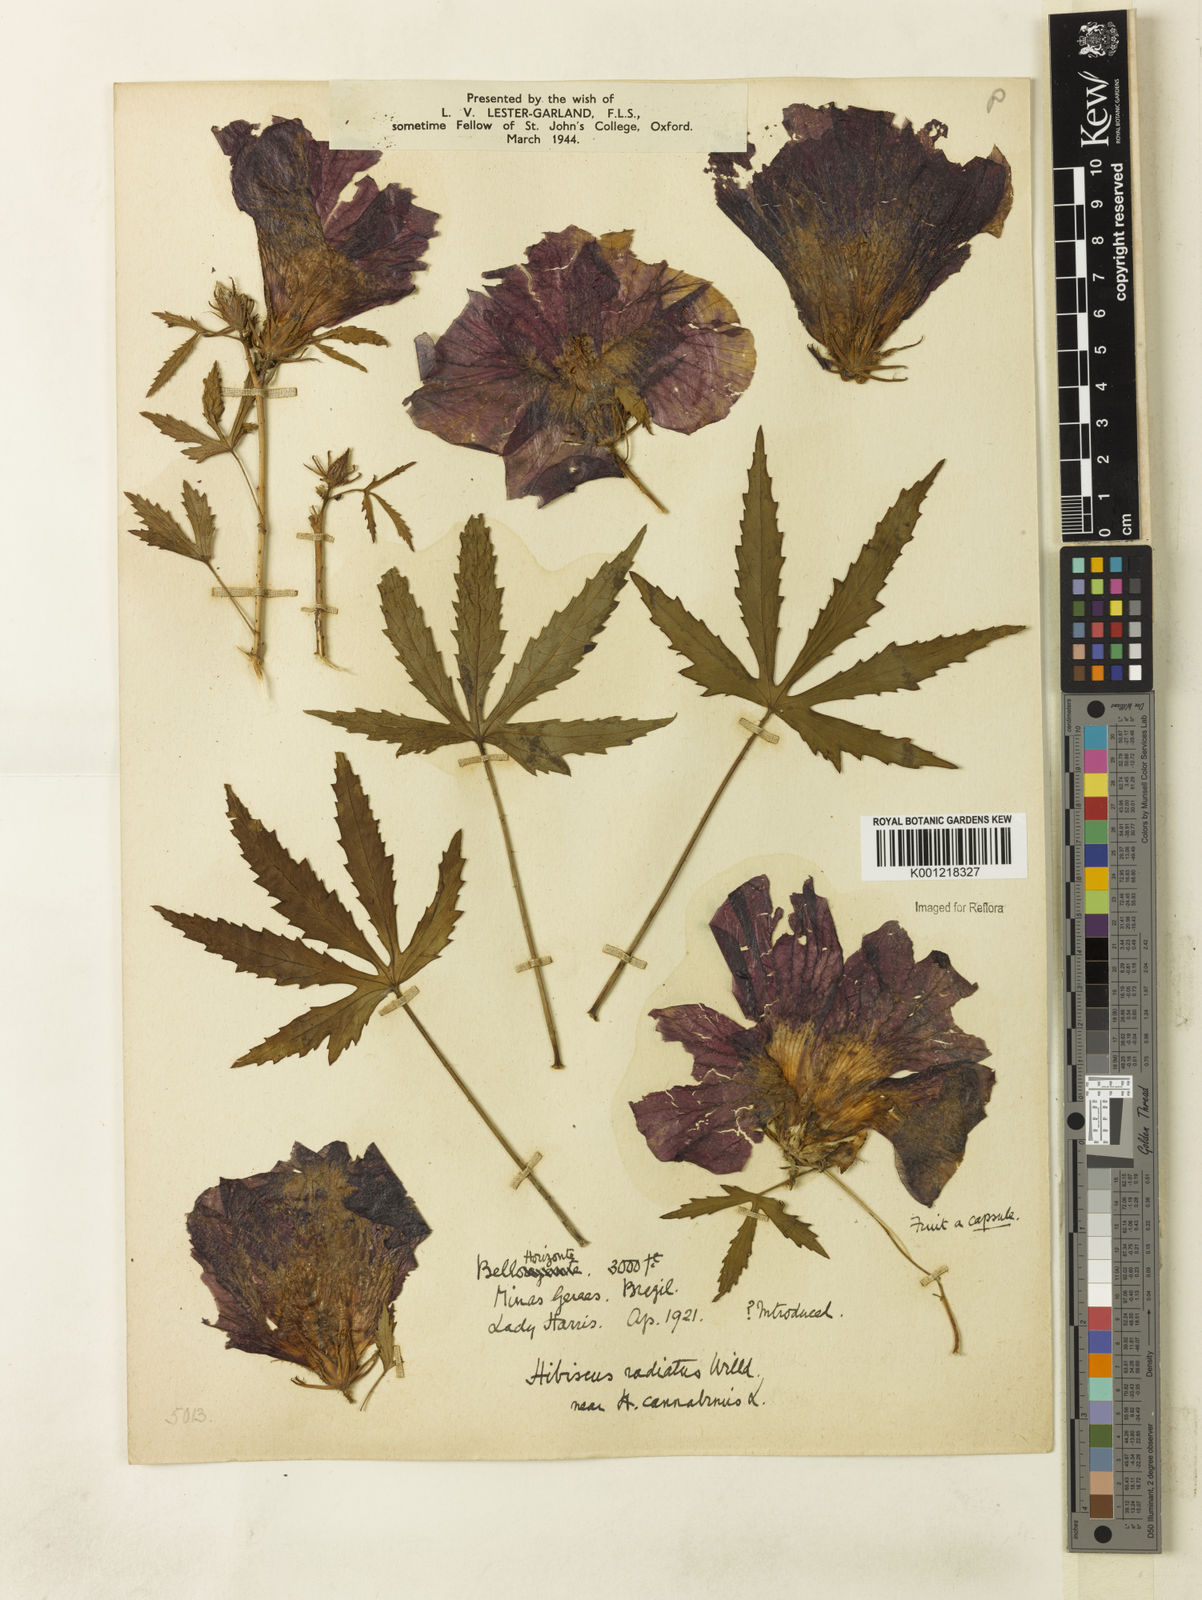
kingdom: Plantae
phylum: Tracheophyta
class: Magnoliopsida
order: Malvales
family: Malvaceae
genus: Hibiscus
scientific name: Hibiscus radiatus
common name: Monarch rosemallow
